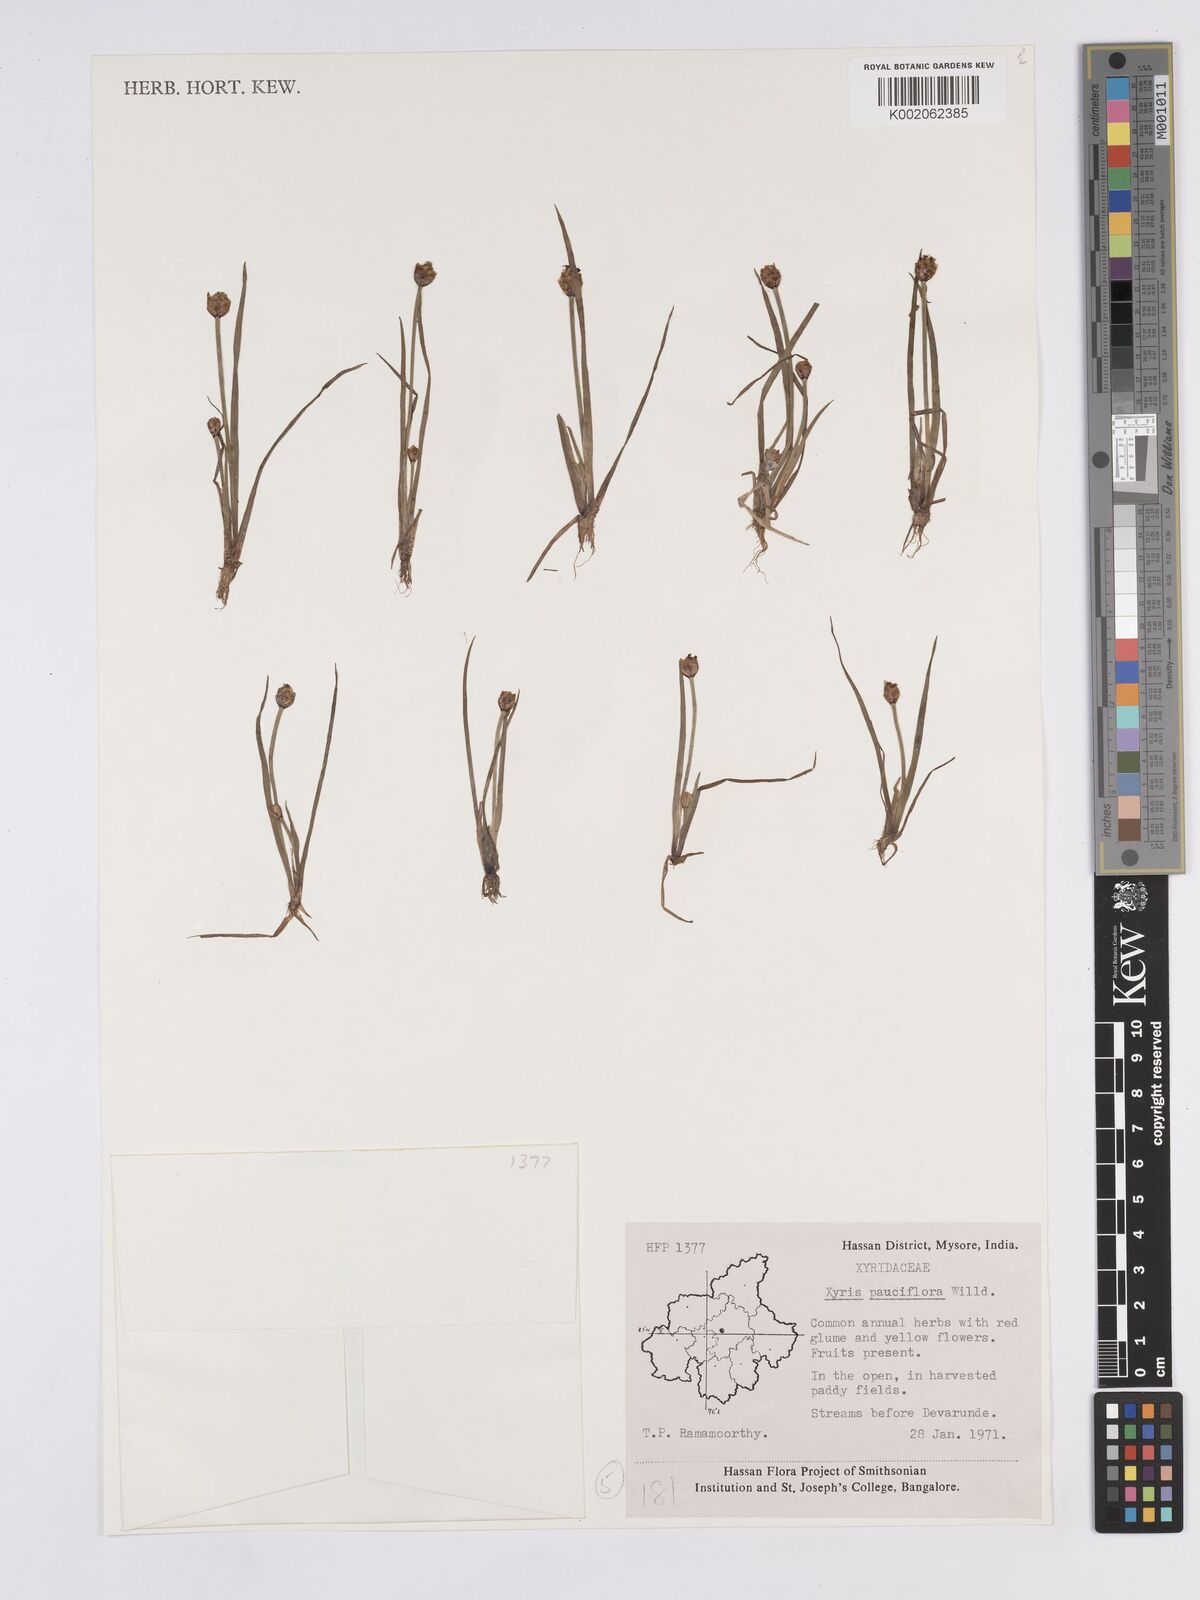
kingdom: Plantae
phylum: Tracheophyta
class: Liliopsida
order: Poales
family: Xyridaceae
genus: Xyris
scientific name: Xyris pauciflora
